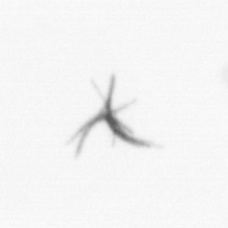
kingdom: Bacteria
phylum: Cyanobacteria
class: Cyanobacteriia
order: Cyanobacteriales
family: Microcoleaceae
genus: Trichodesmium
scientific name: Trichodesmium
